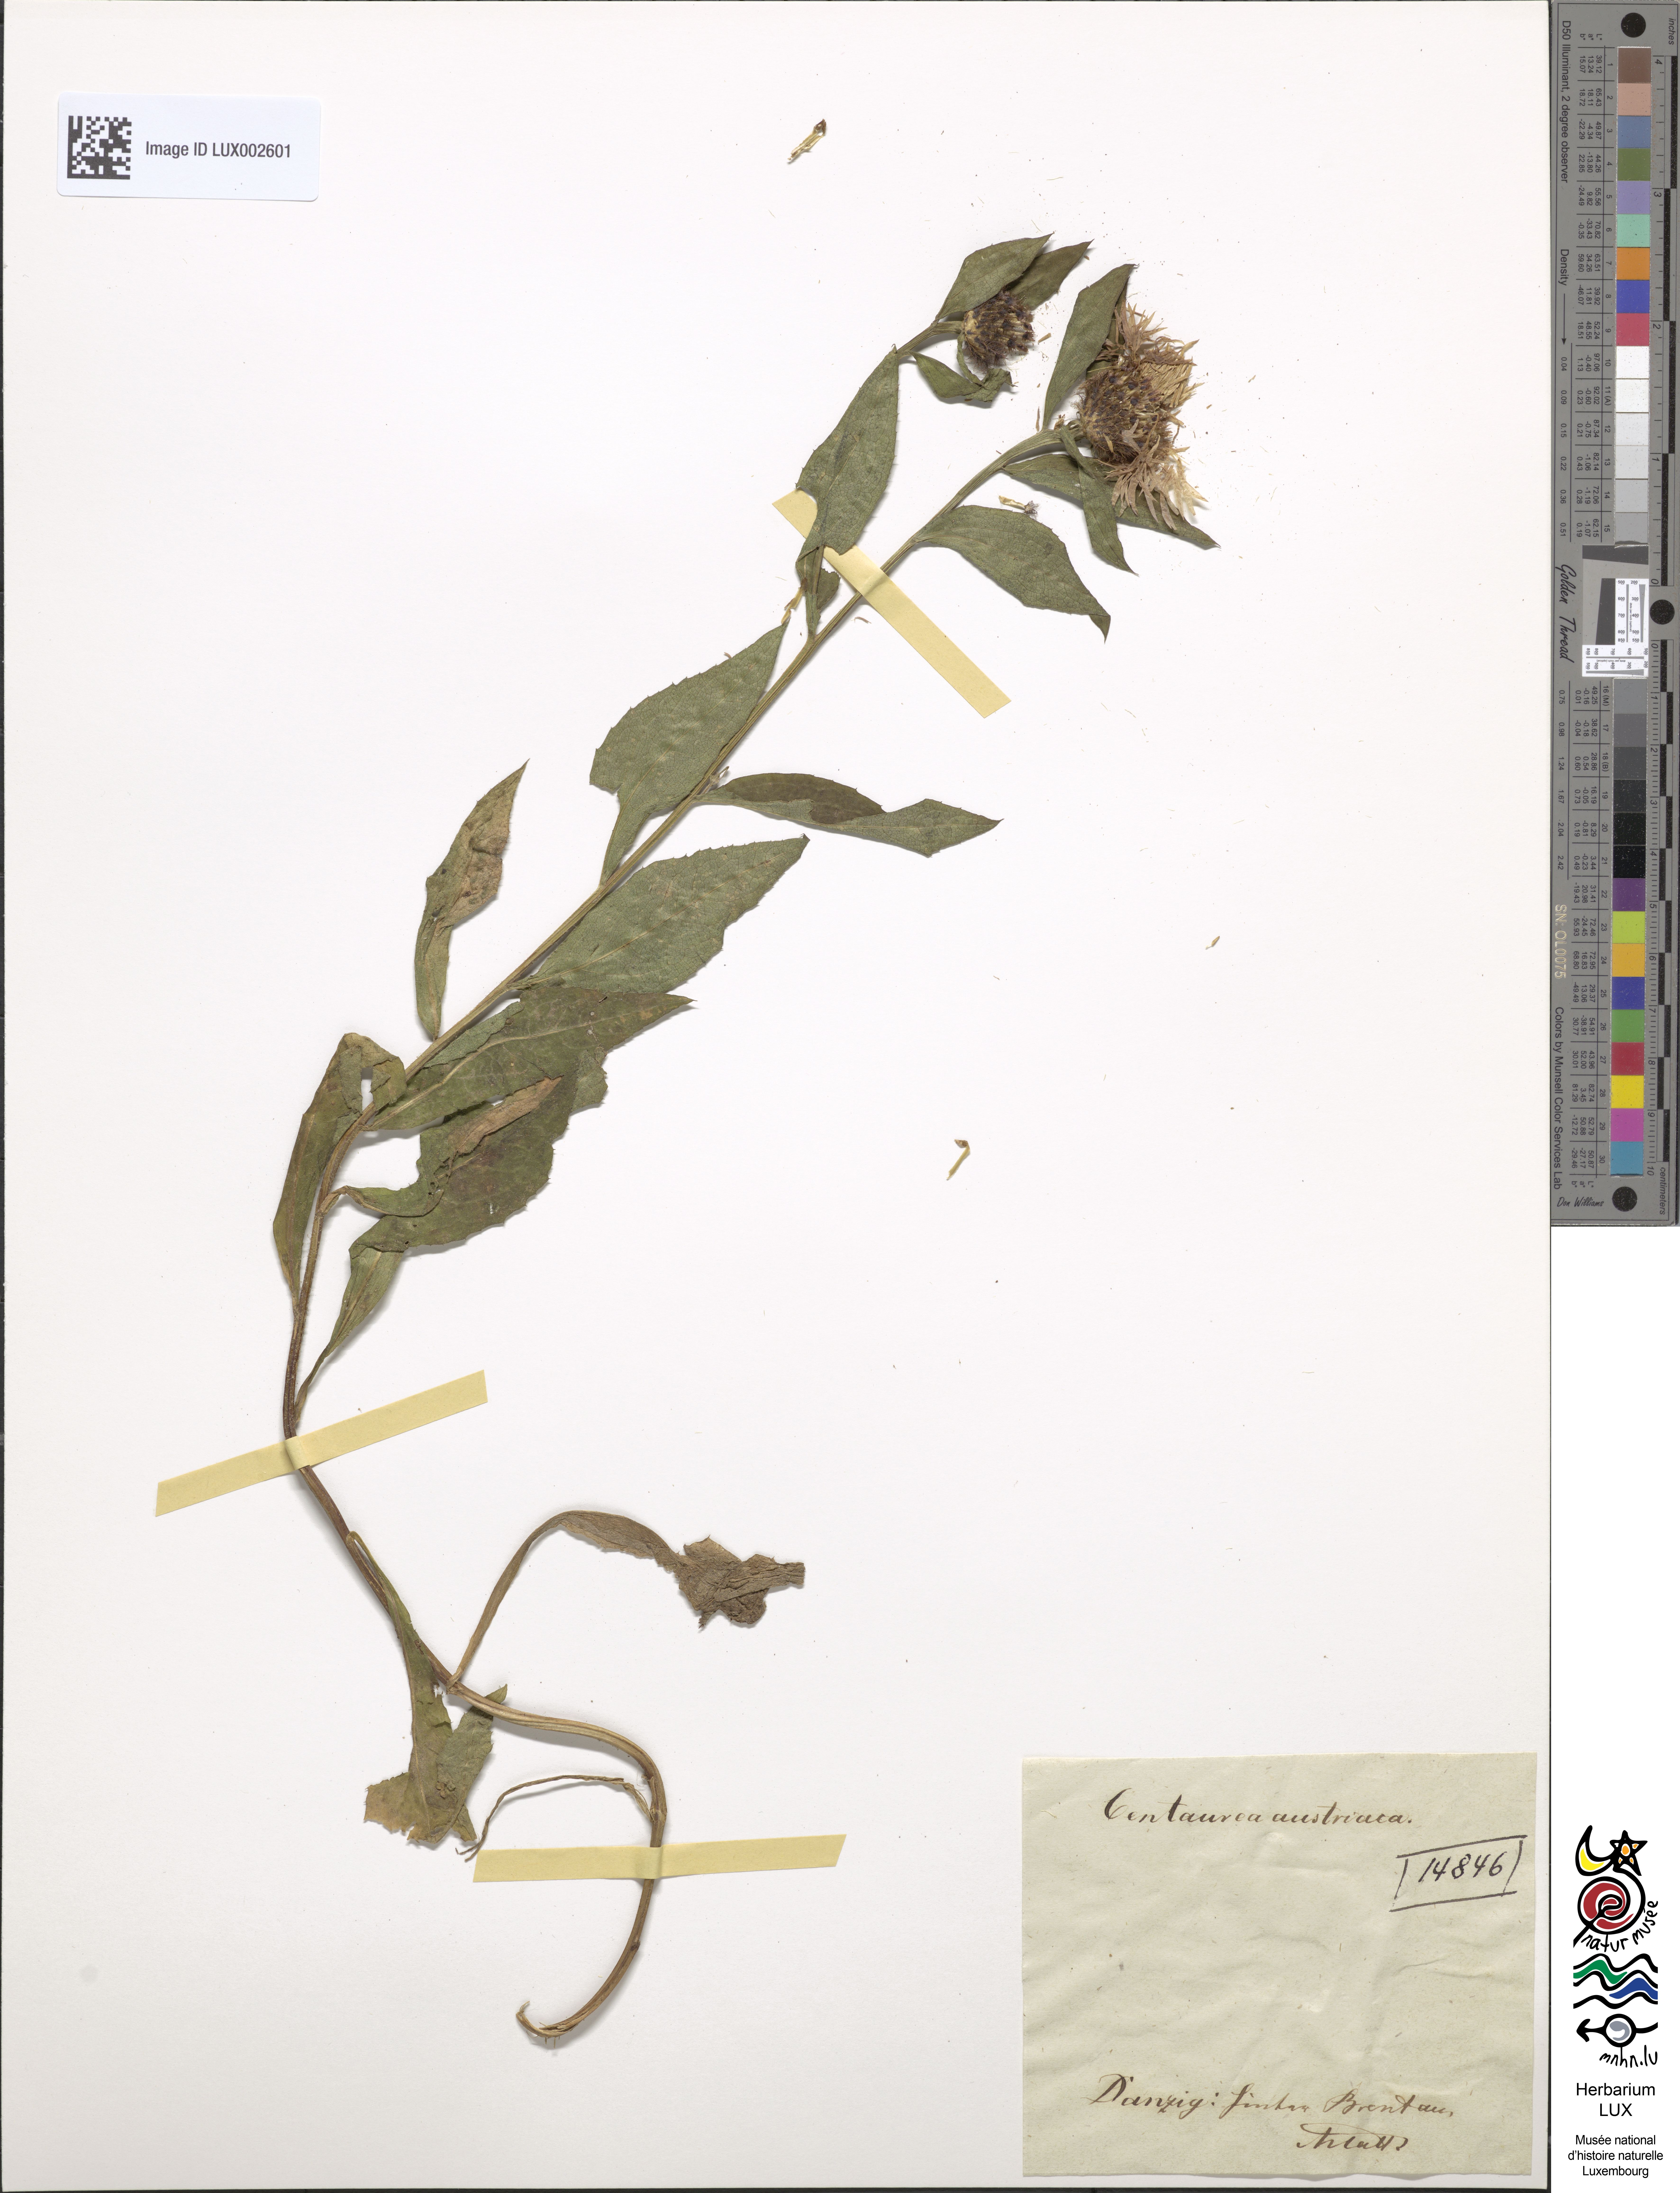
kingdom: Plantae
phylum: Tracheophyta
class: Magnoliopsida
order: Asterales
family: Asteraceae
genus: Centaurea
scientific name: Centaurea phrygia
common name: Wig knapweed
